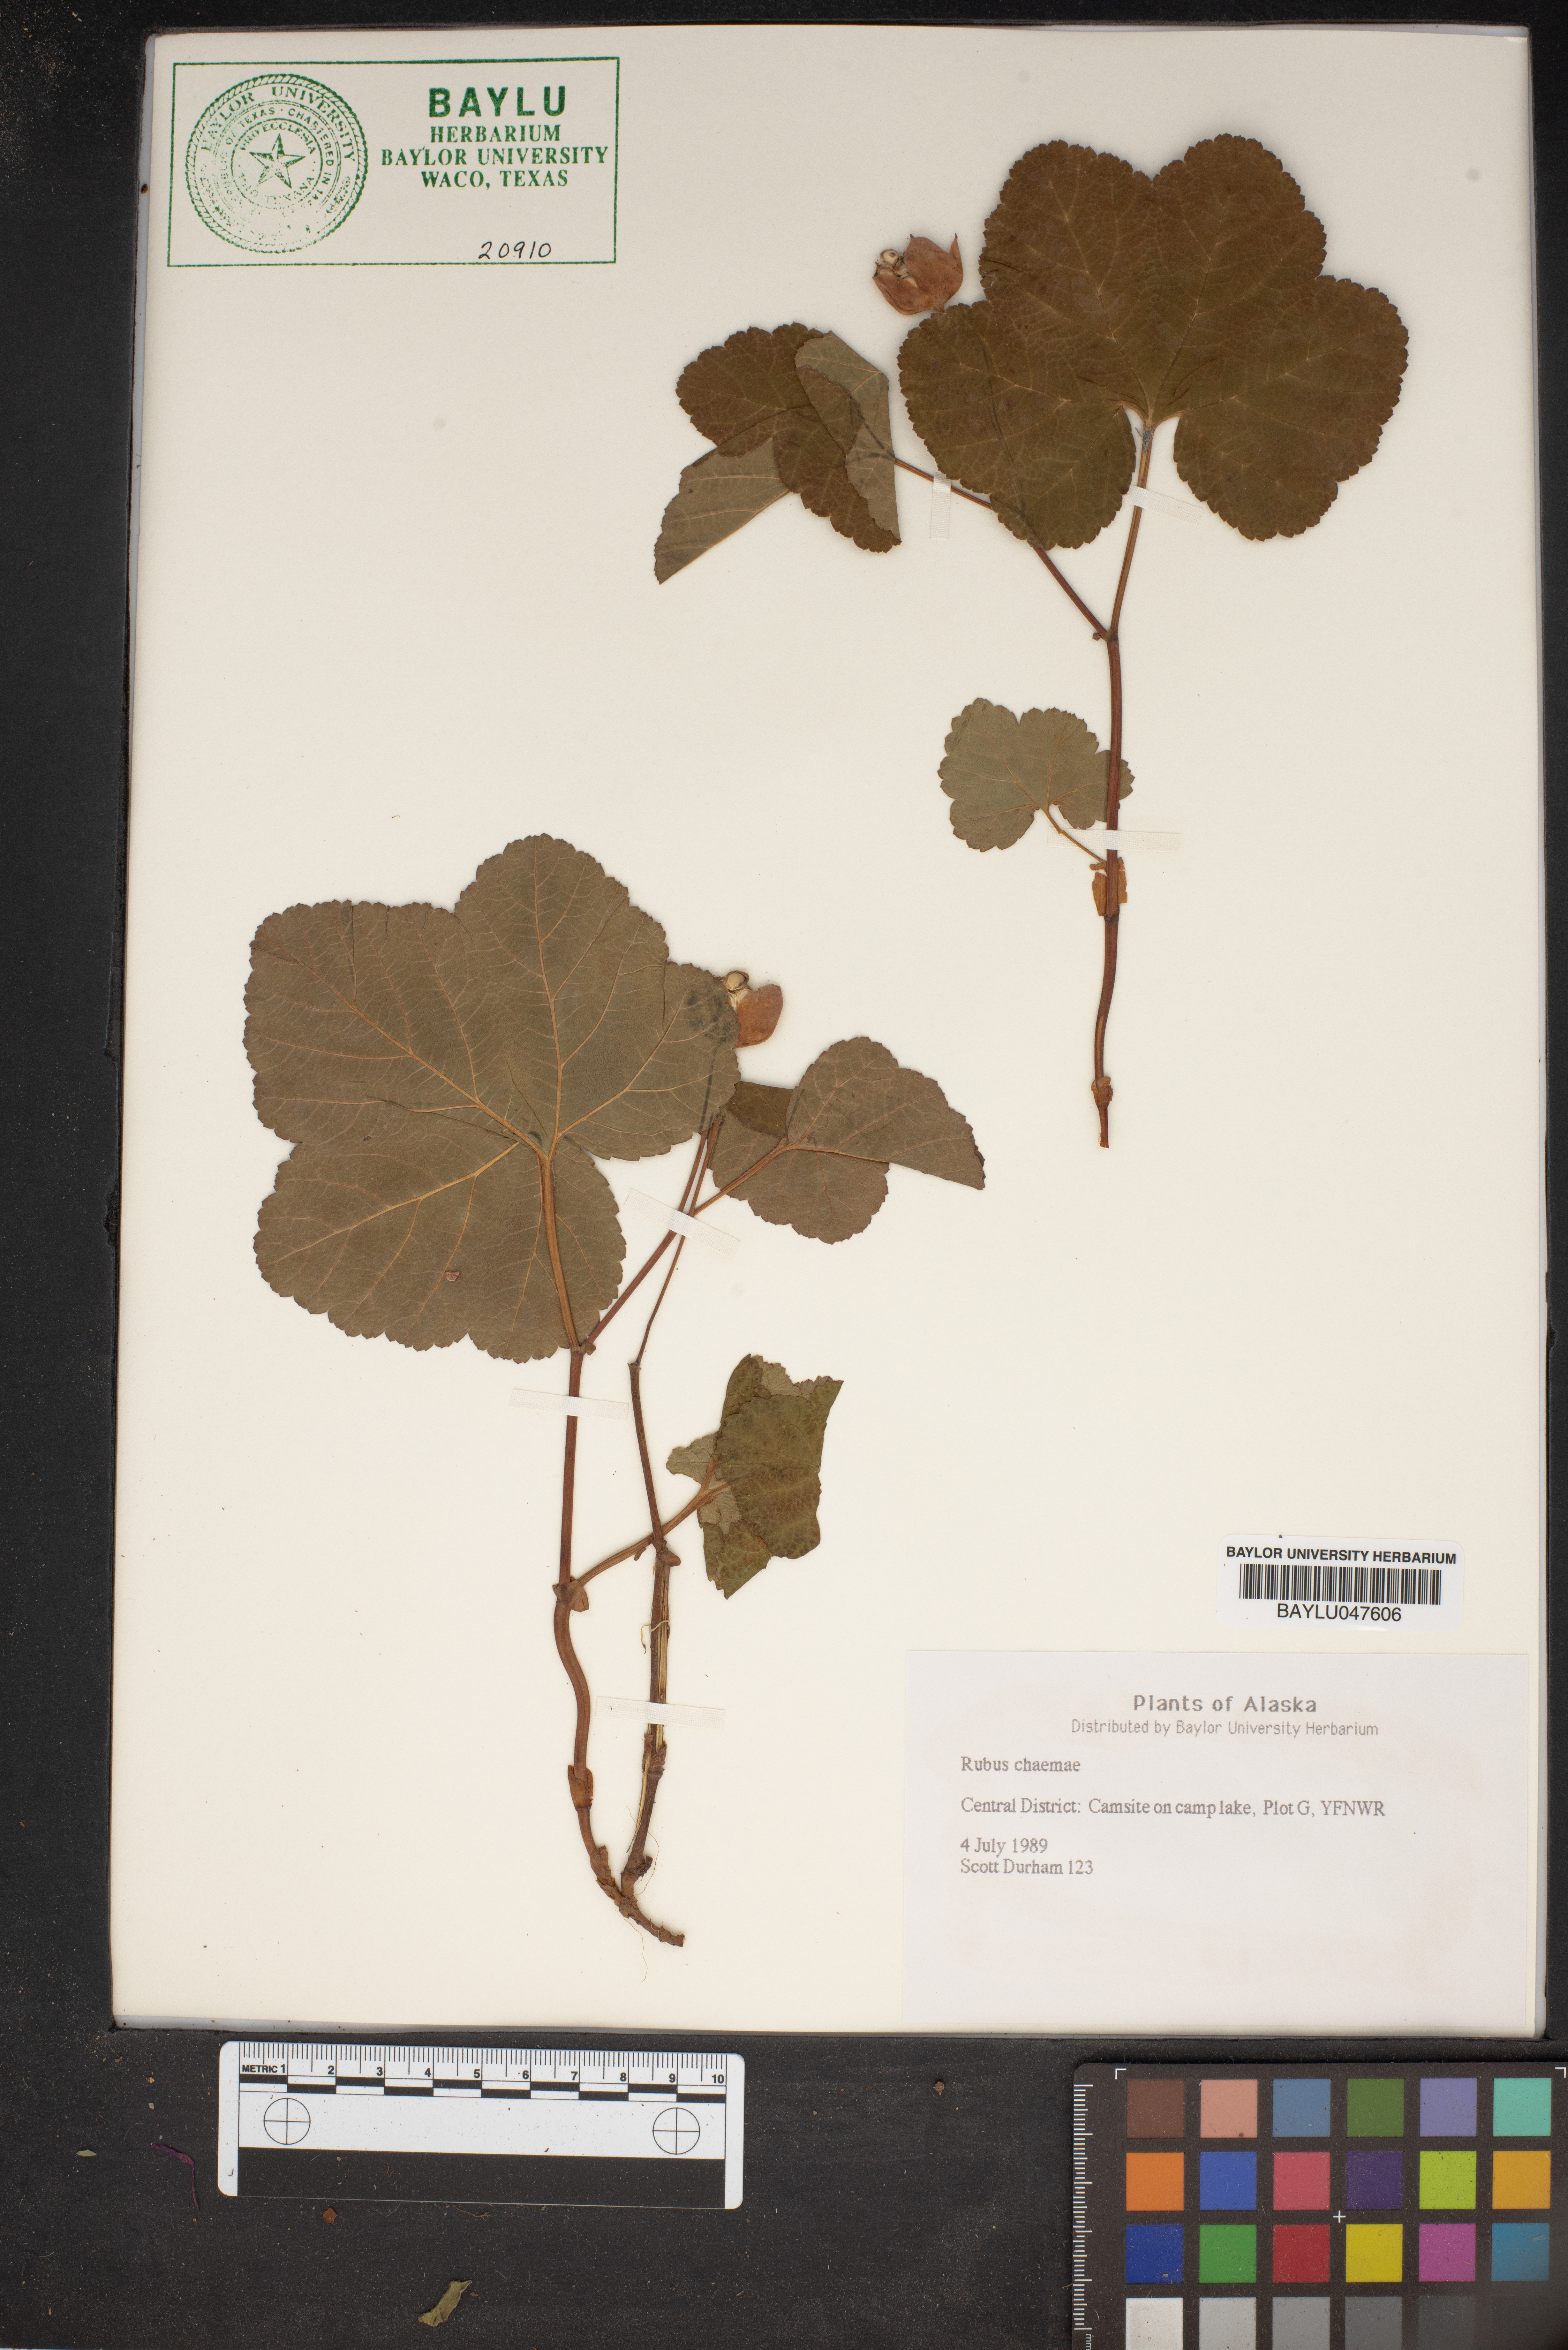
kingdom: Plantae
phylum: Tracheophyta
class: Magnoliopsida
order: Rosales
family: Rosaceae
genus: Rubus
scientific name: Rubus chamaemorus
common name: Cloudberry
